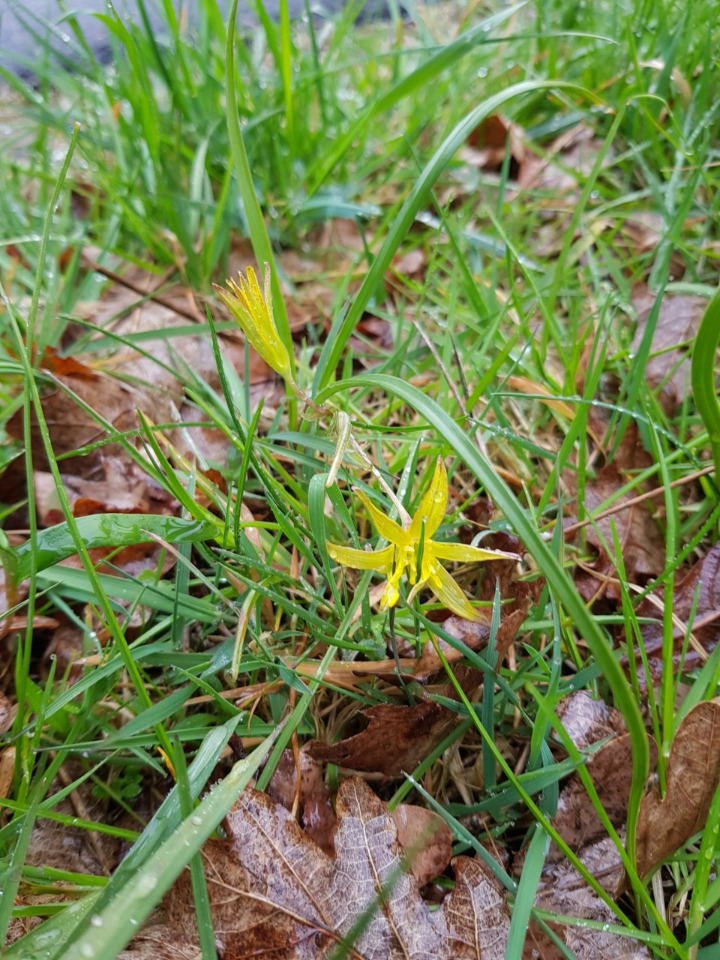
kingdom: Plantae
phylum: Tracheophyta
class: Liliopsida
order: Liliales
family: Liliaceae
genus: Gagea
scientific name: Gagea pratensis
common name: Eng-guldstjerne
